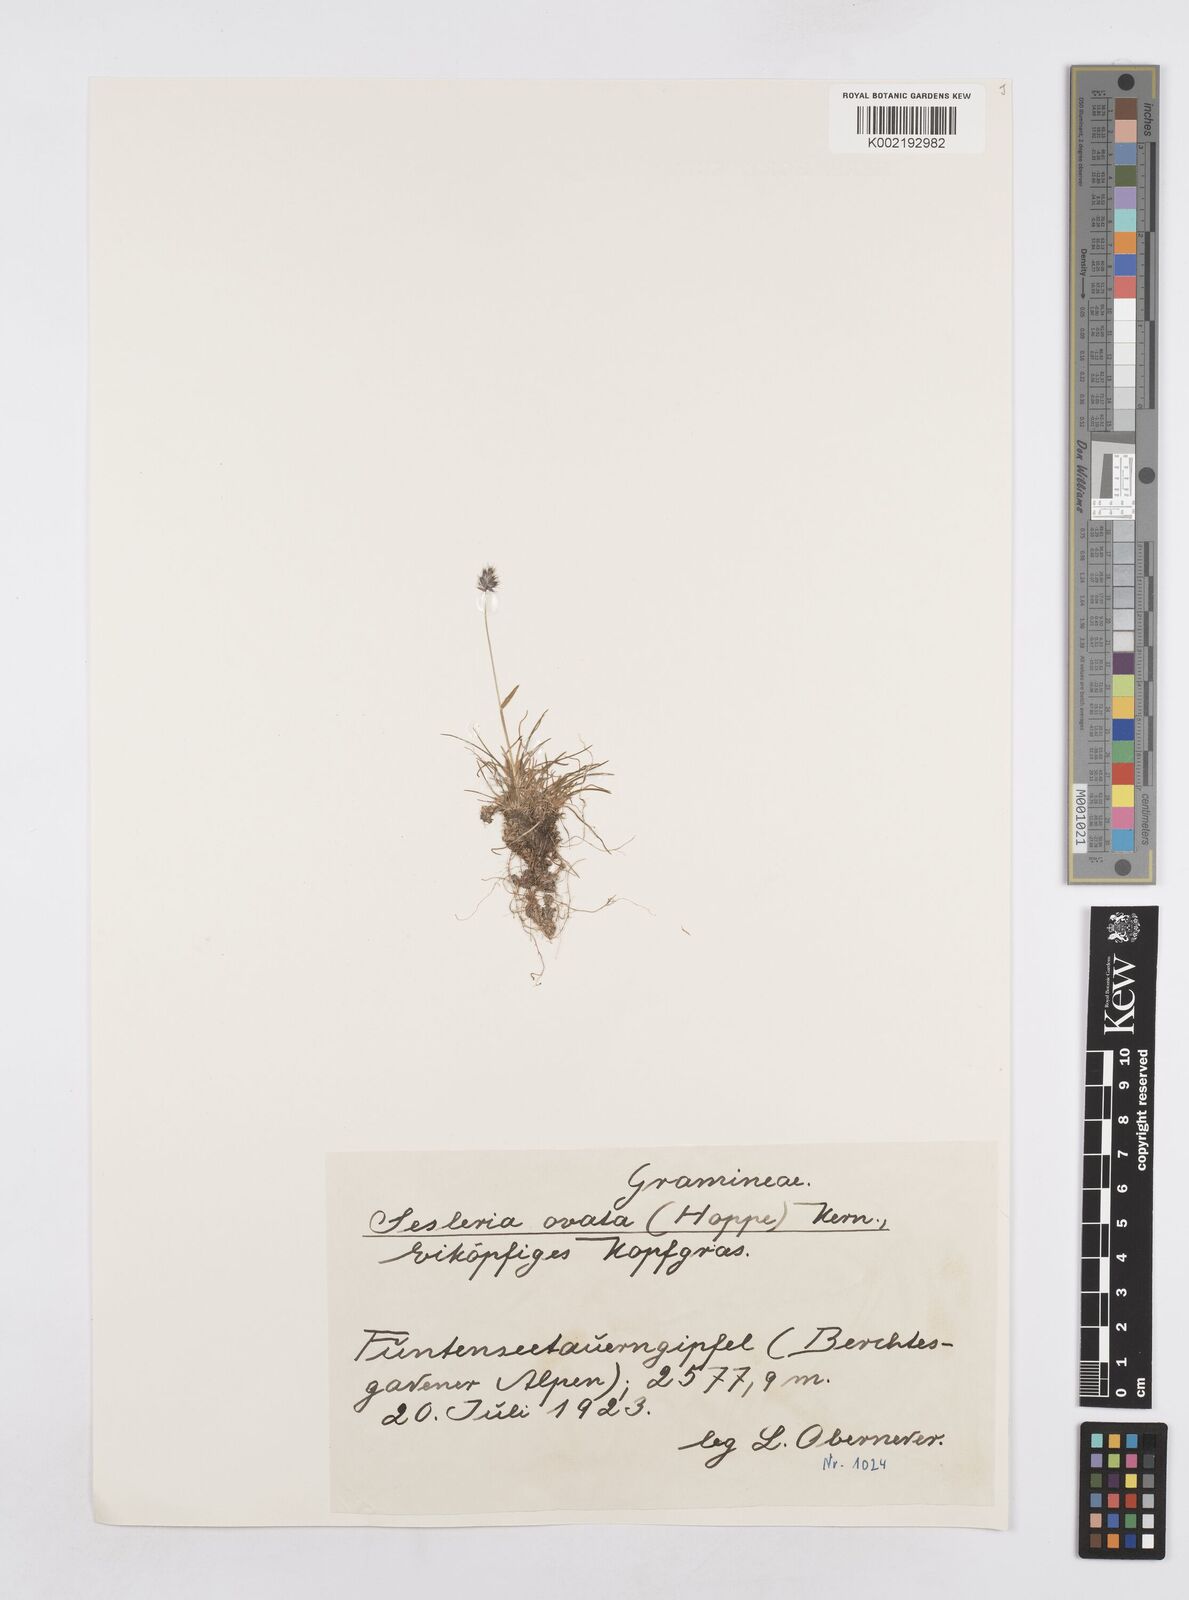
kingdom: Plantae
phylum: Tracheophyta
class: Liliopsida
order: Poales
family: Poaceae
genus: Sesleria
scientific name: Sesleria caerulea
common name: Blue moor-grass
